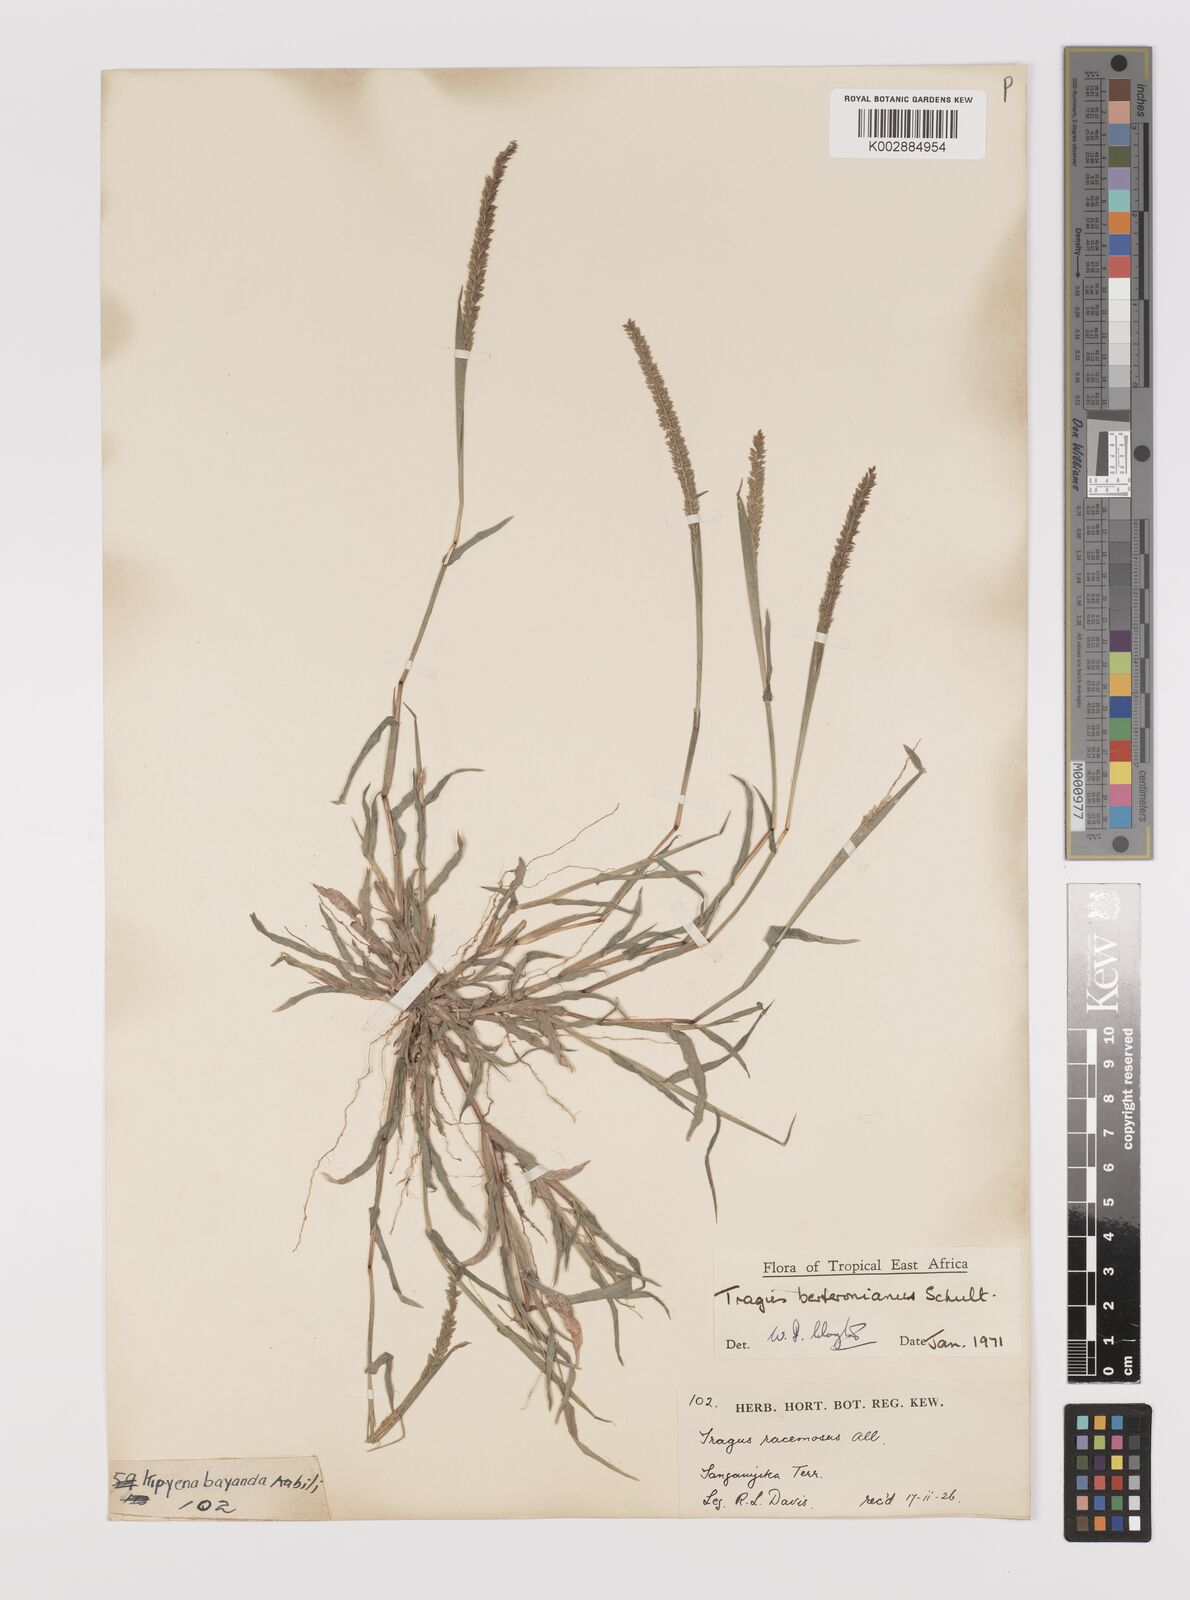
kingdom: Plantae
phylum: Tracheophyta
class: Liliopsida
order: Poales
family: Poaceae
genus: Tragus
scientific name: Tragus berteronianus
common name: African bur-grass
